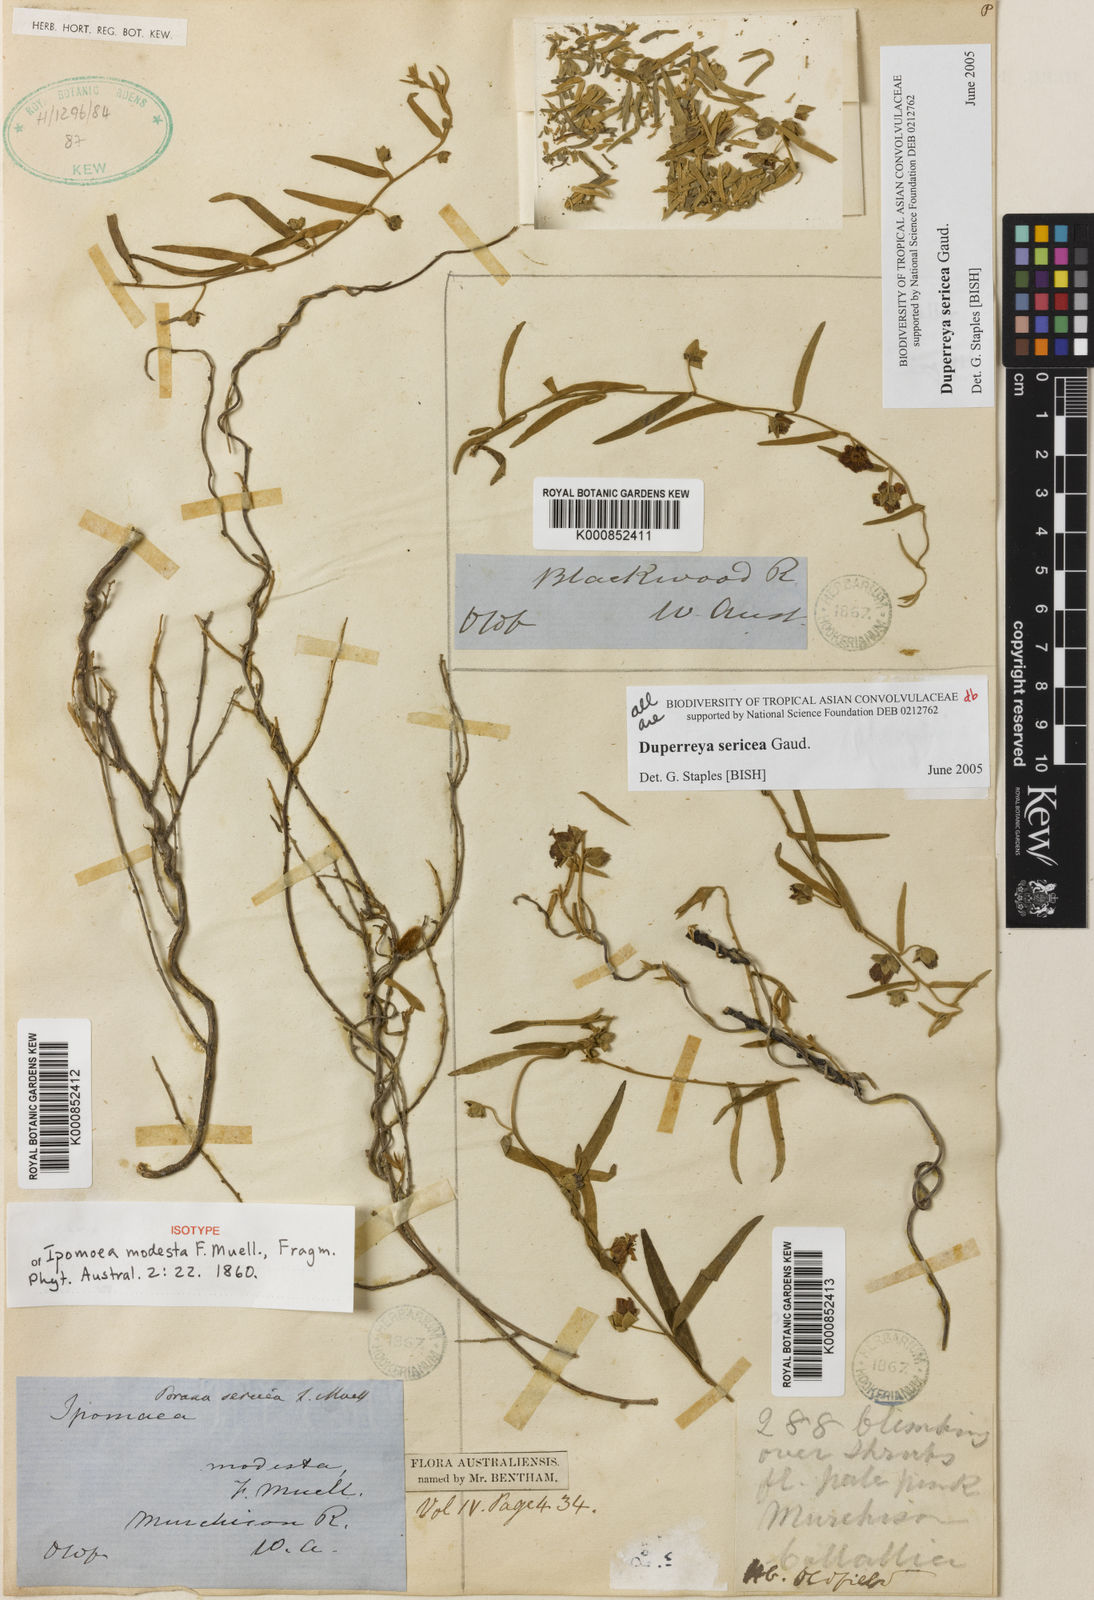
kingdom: Plantae
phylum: Tracheophyta
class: Magnoliopsida
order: Solanales
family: Convolvulaceae
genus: Duperreya
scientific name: Duperreya sericea
